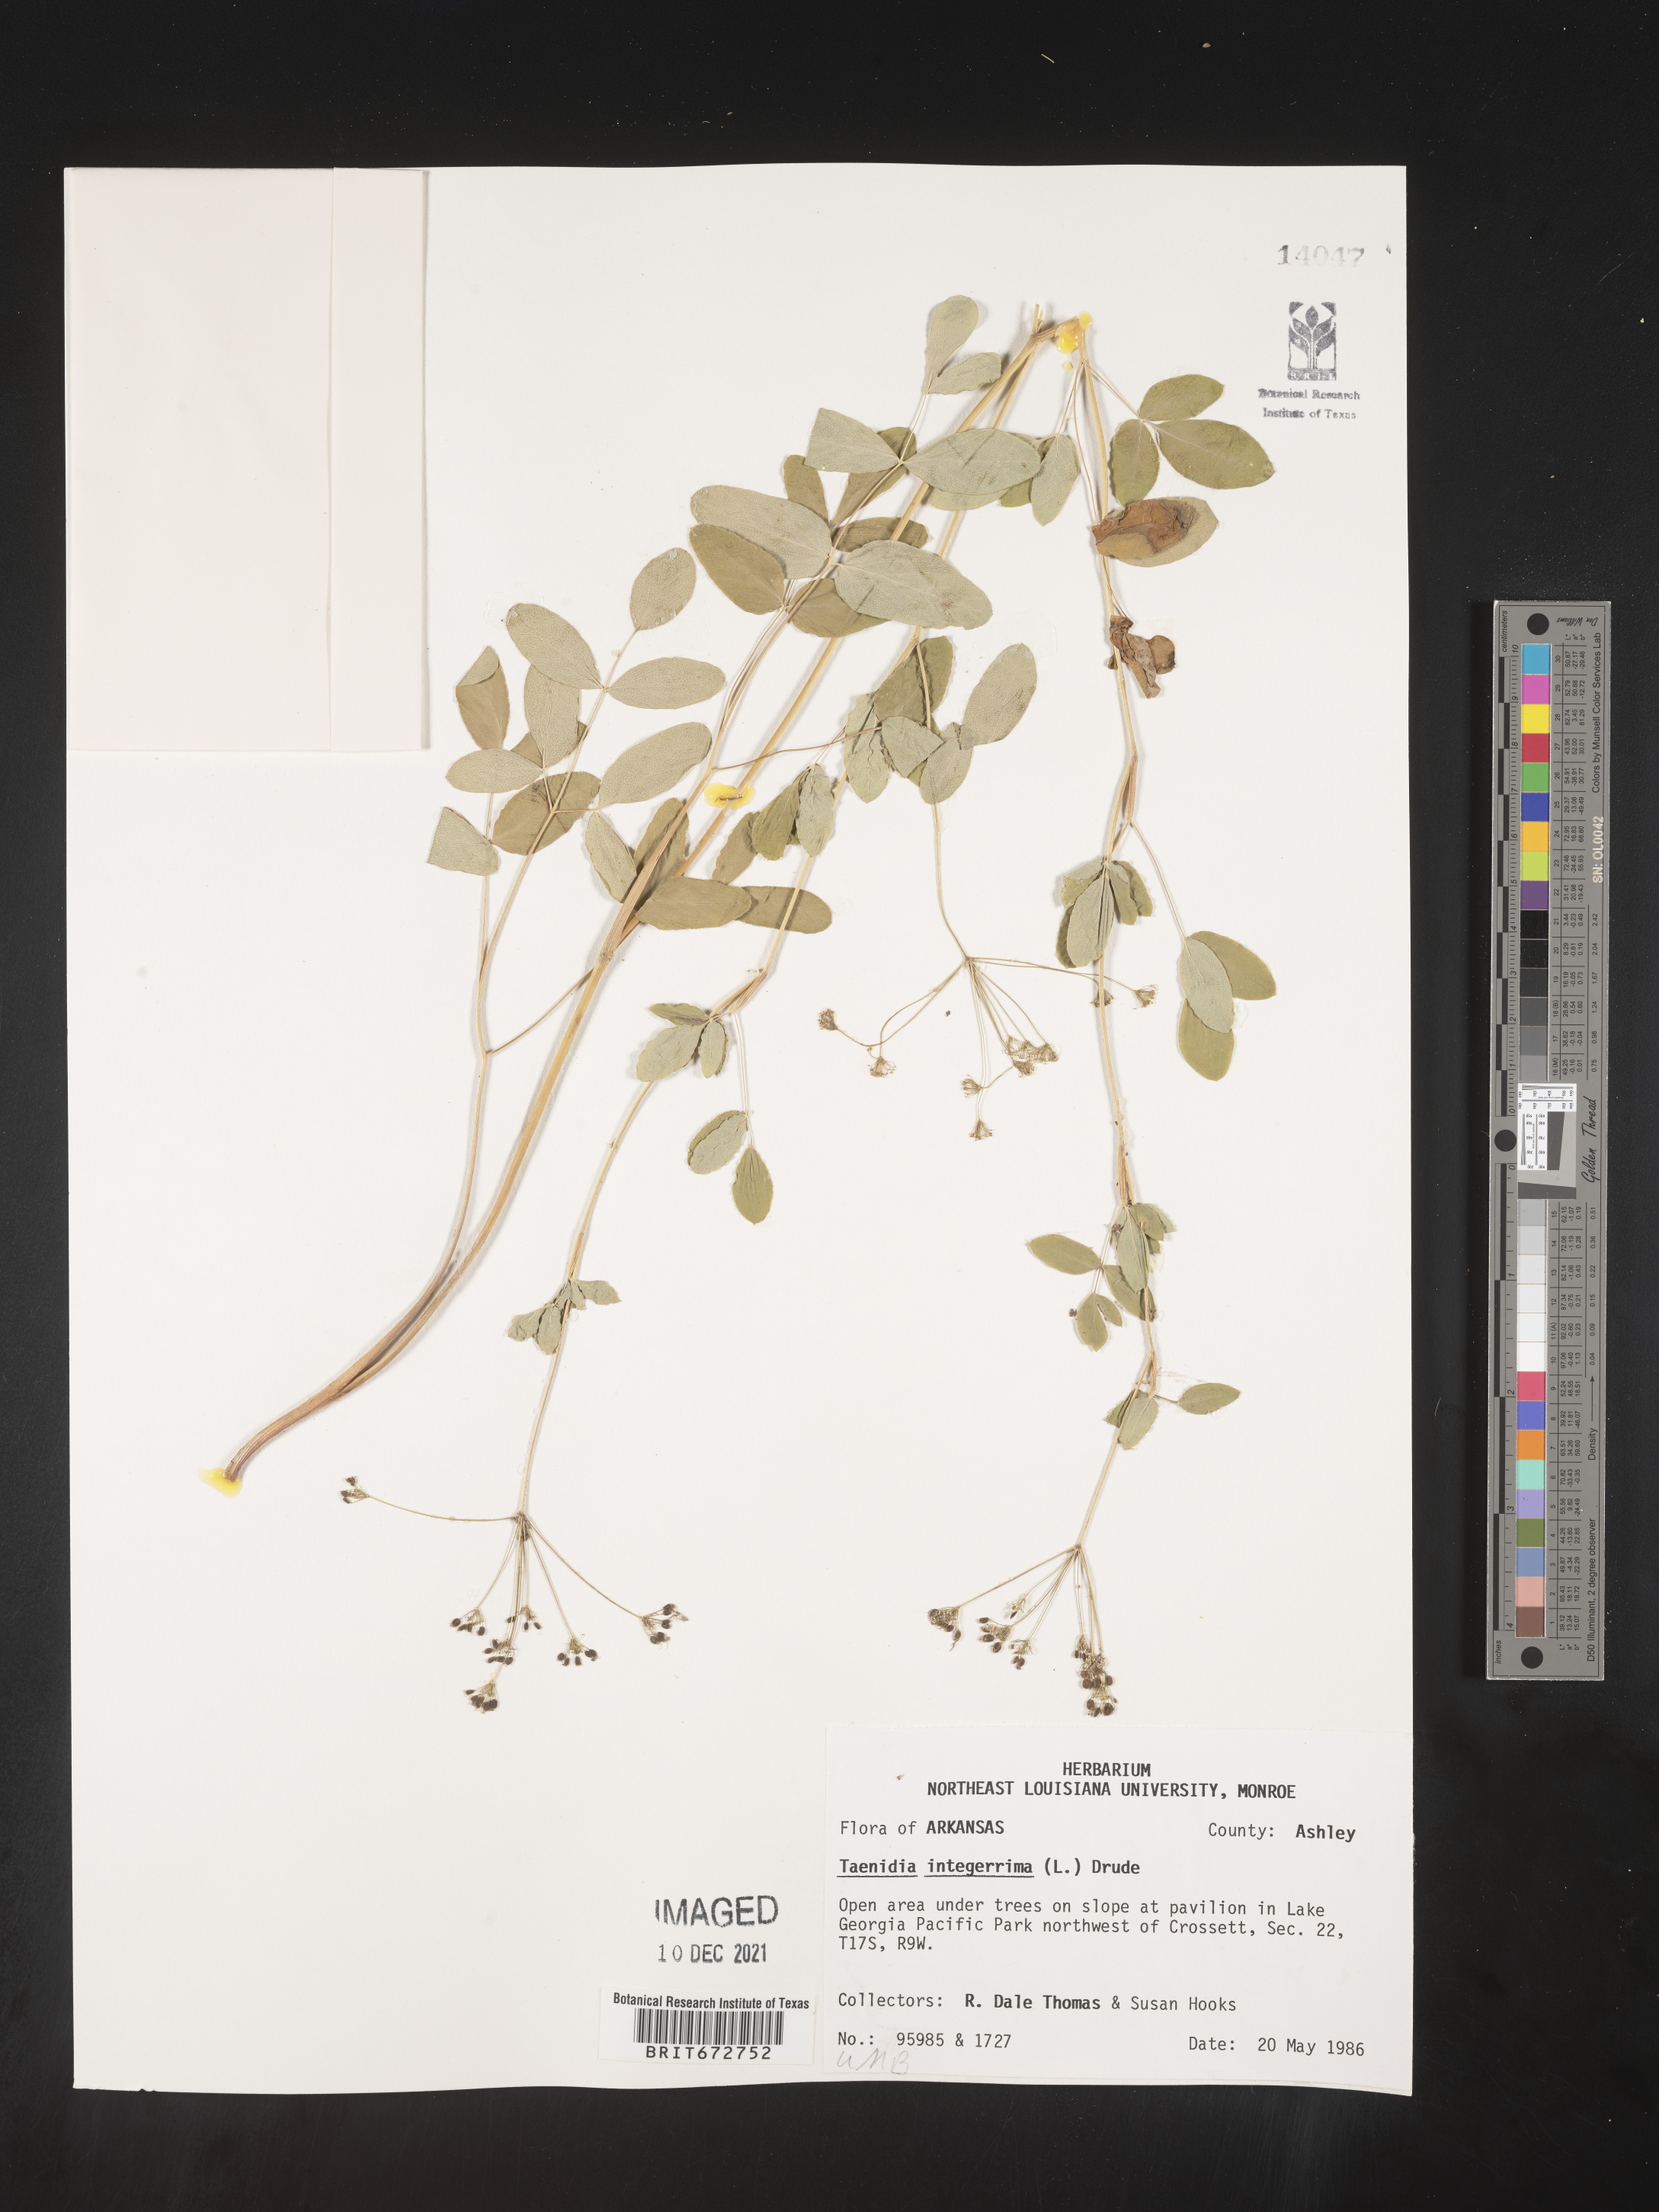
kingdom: Plantae
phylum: Tracheophyta
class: Magnoliopsida
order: Apiales
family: Apiaceae
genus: Taenidia
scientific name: Taenidia integerrima
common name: Golden alexander
